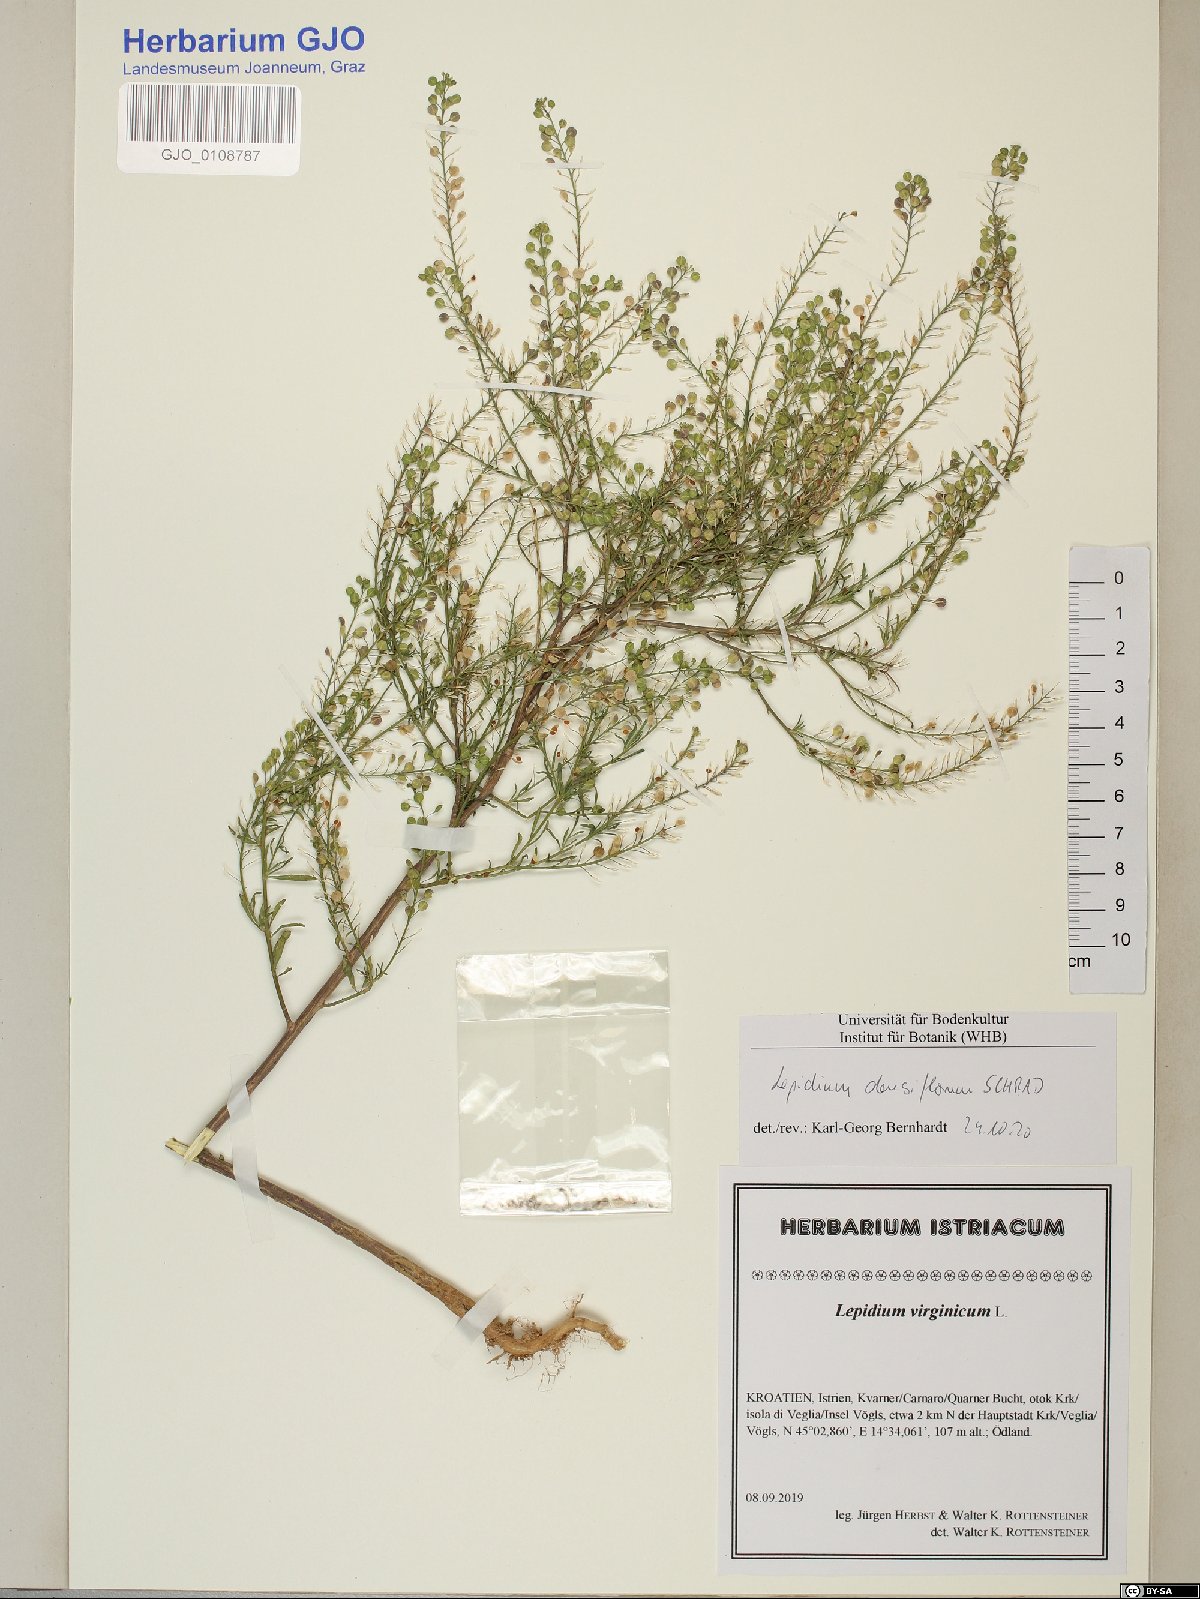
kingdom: Plantae
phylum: Tracheophyta
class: Magnoliopsida
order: Brassicales
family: Brassicaceae
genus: Lepidium
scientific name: Lepidium densiflorum
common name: Miner's pepperwort
